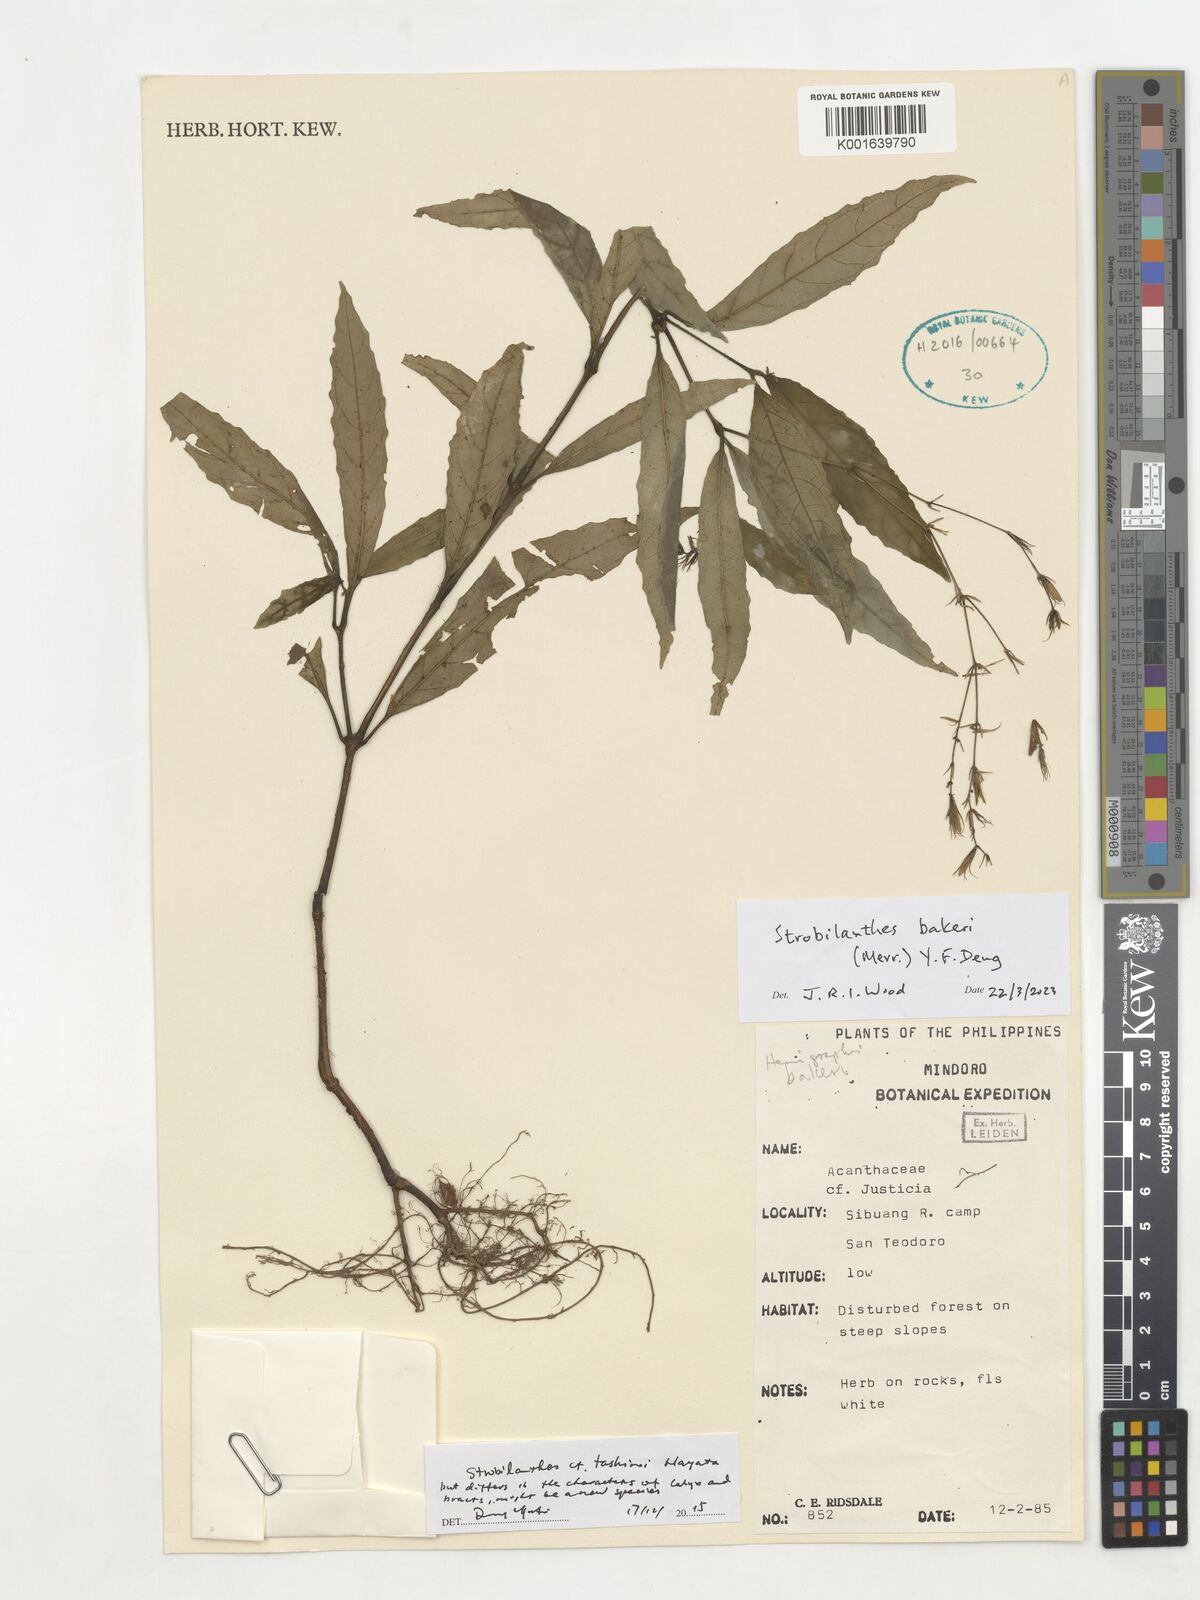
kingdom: Plantae
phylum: Tracheophyta
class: Magnoliopsida
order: Lamiales
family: Acanthaceae
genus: Strobilanthes
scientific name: Strobilanthes bakeri
